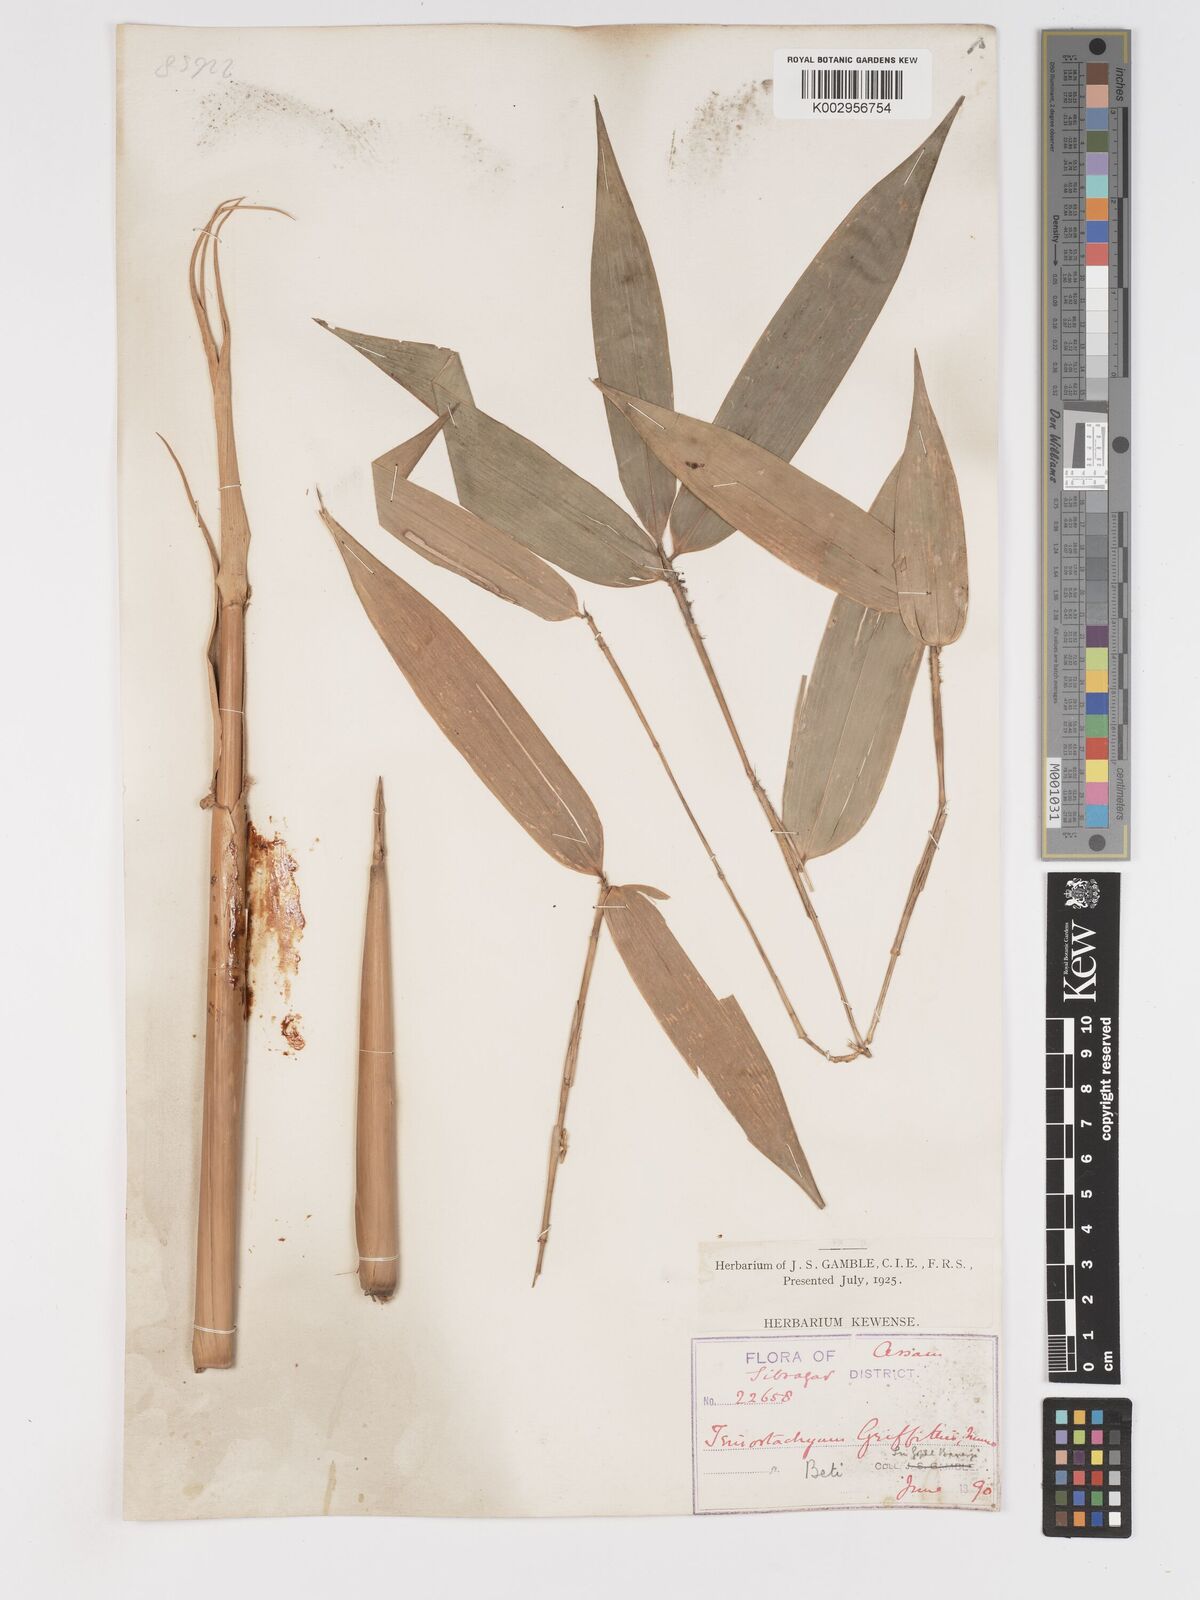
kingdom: Plantae
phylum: Tracheophyta
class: Liliopsida
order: Poales
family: Poaceae
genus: Schizostachyum
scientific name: Schizostachyum griffithii
